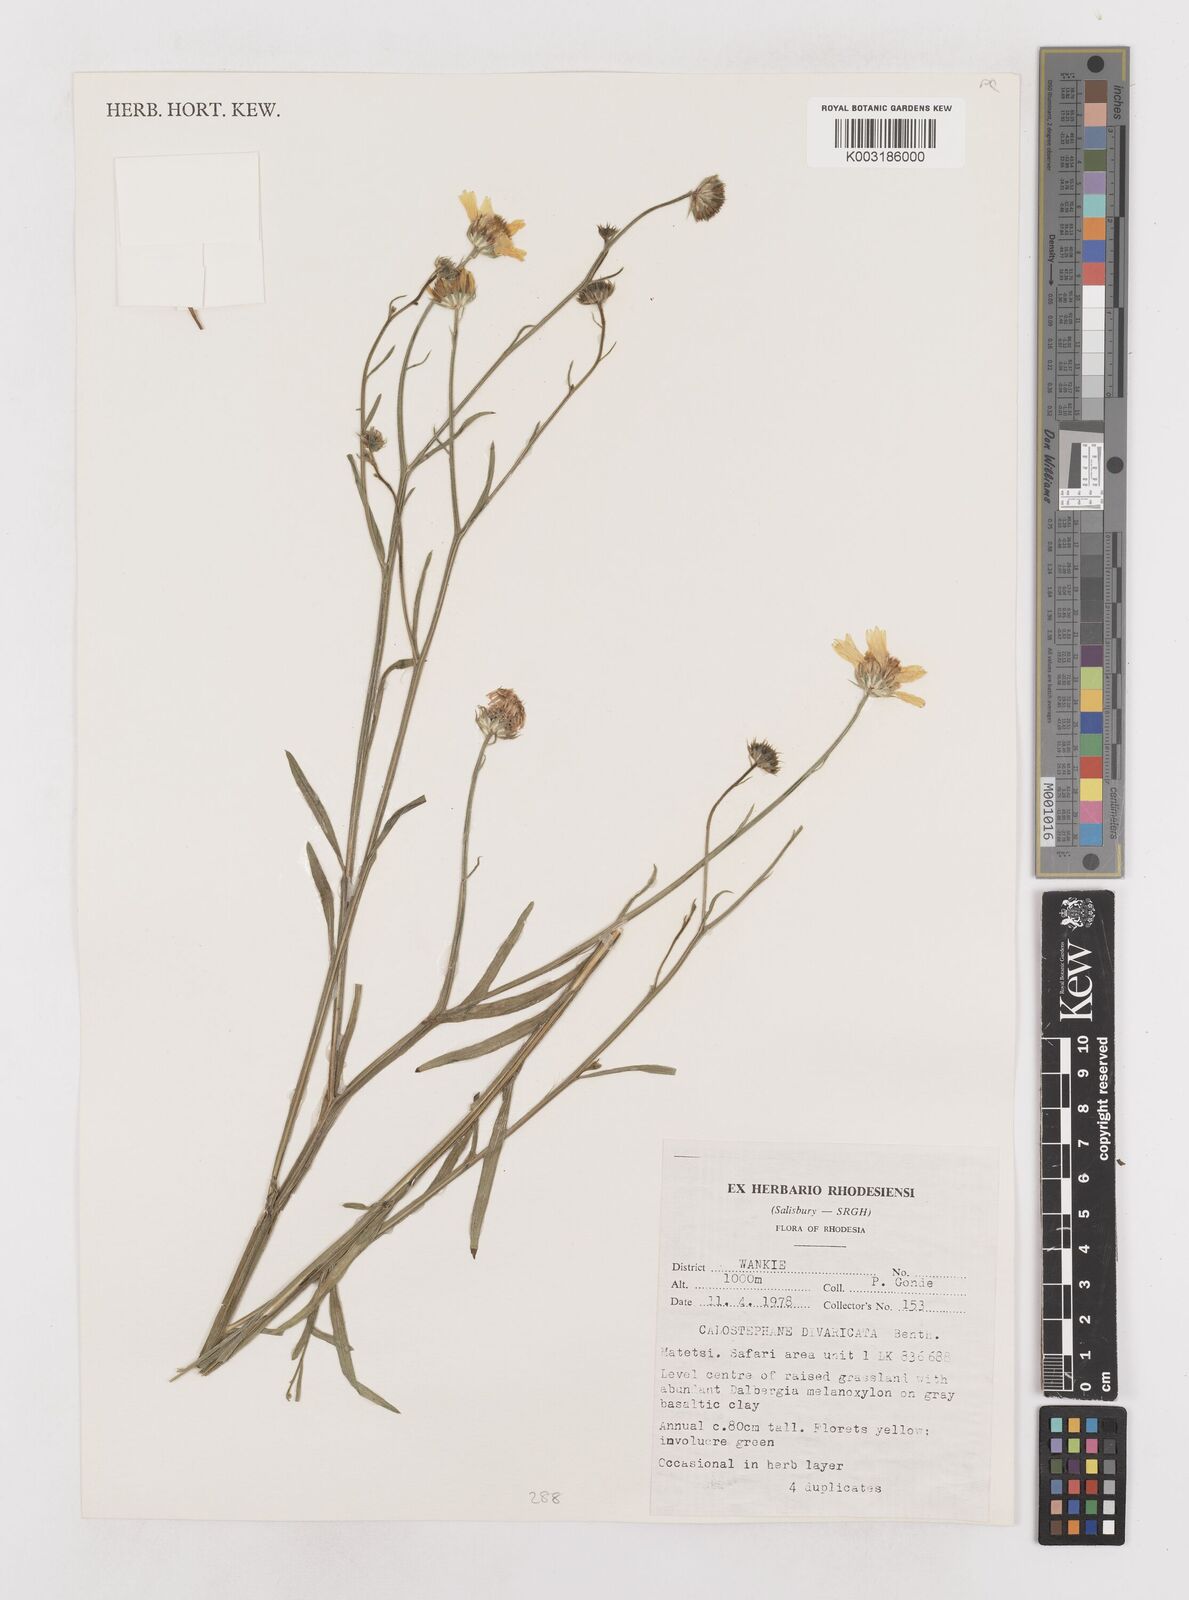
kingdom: Plantae
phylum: Tracheophyta
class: Magnoliopsida
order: Asterales
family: Asteraceae
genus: Calostephane
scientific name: Calostephane divaricata
